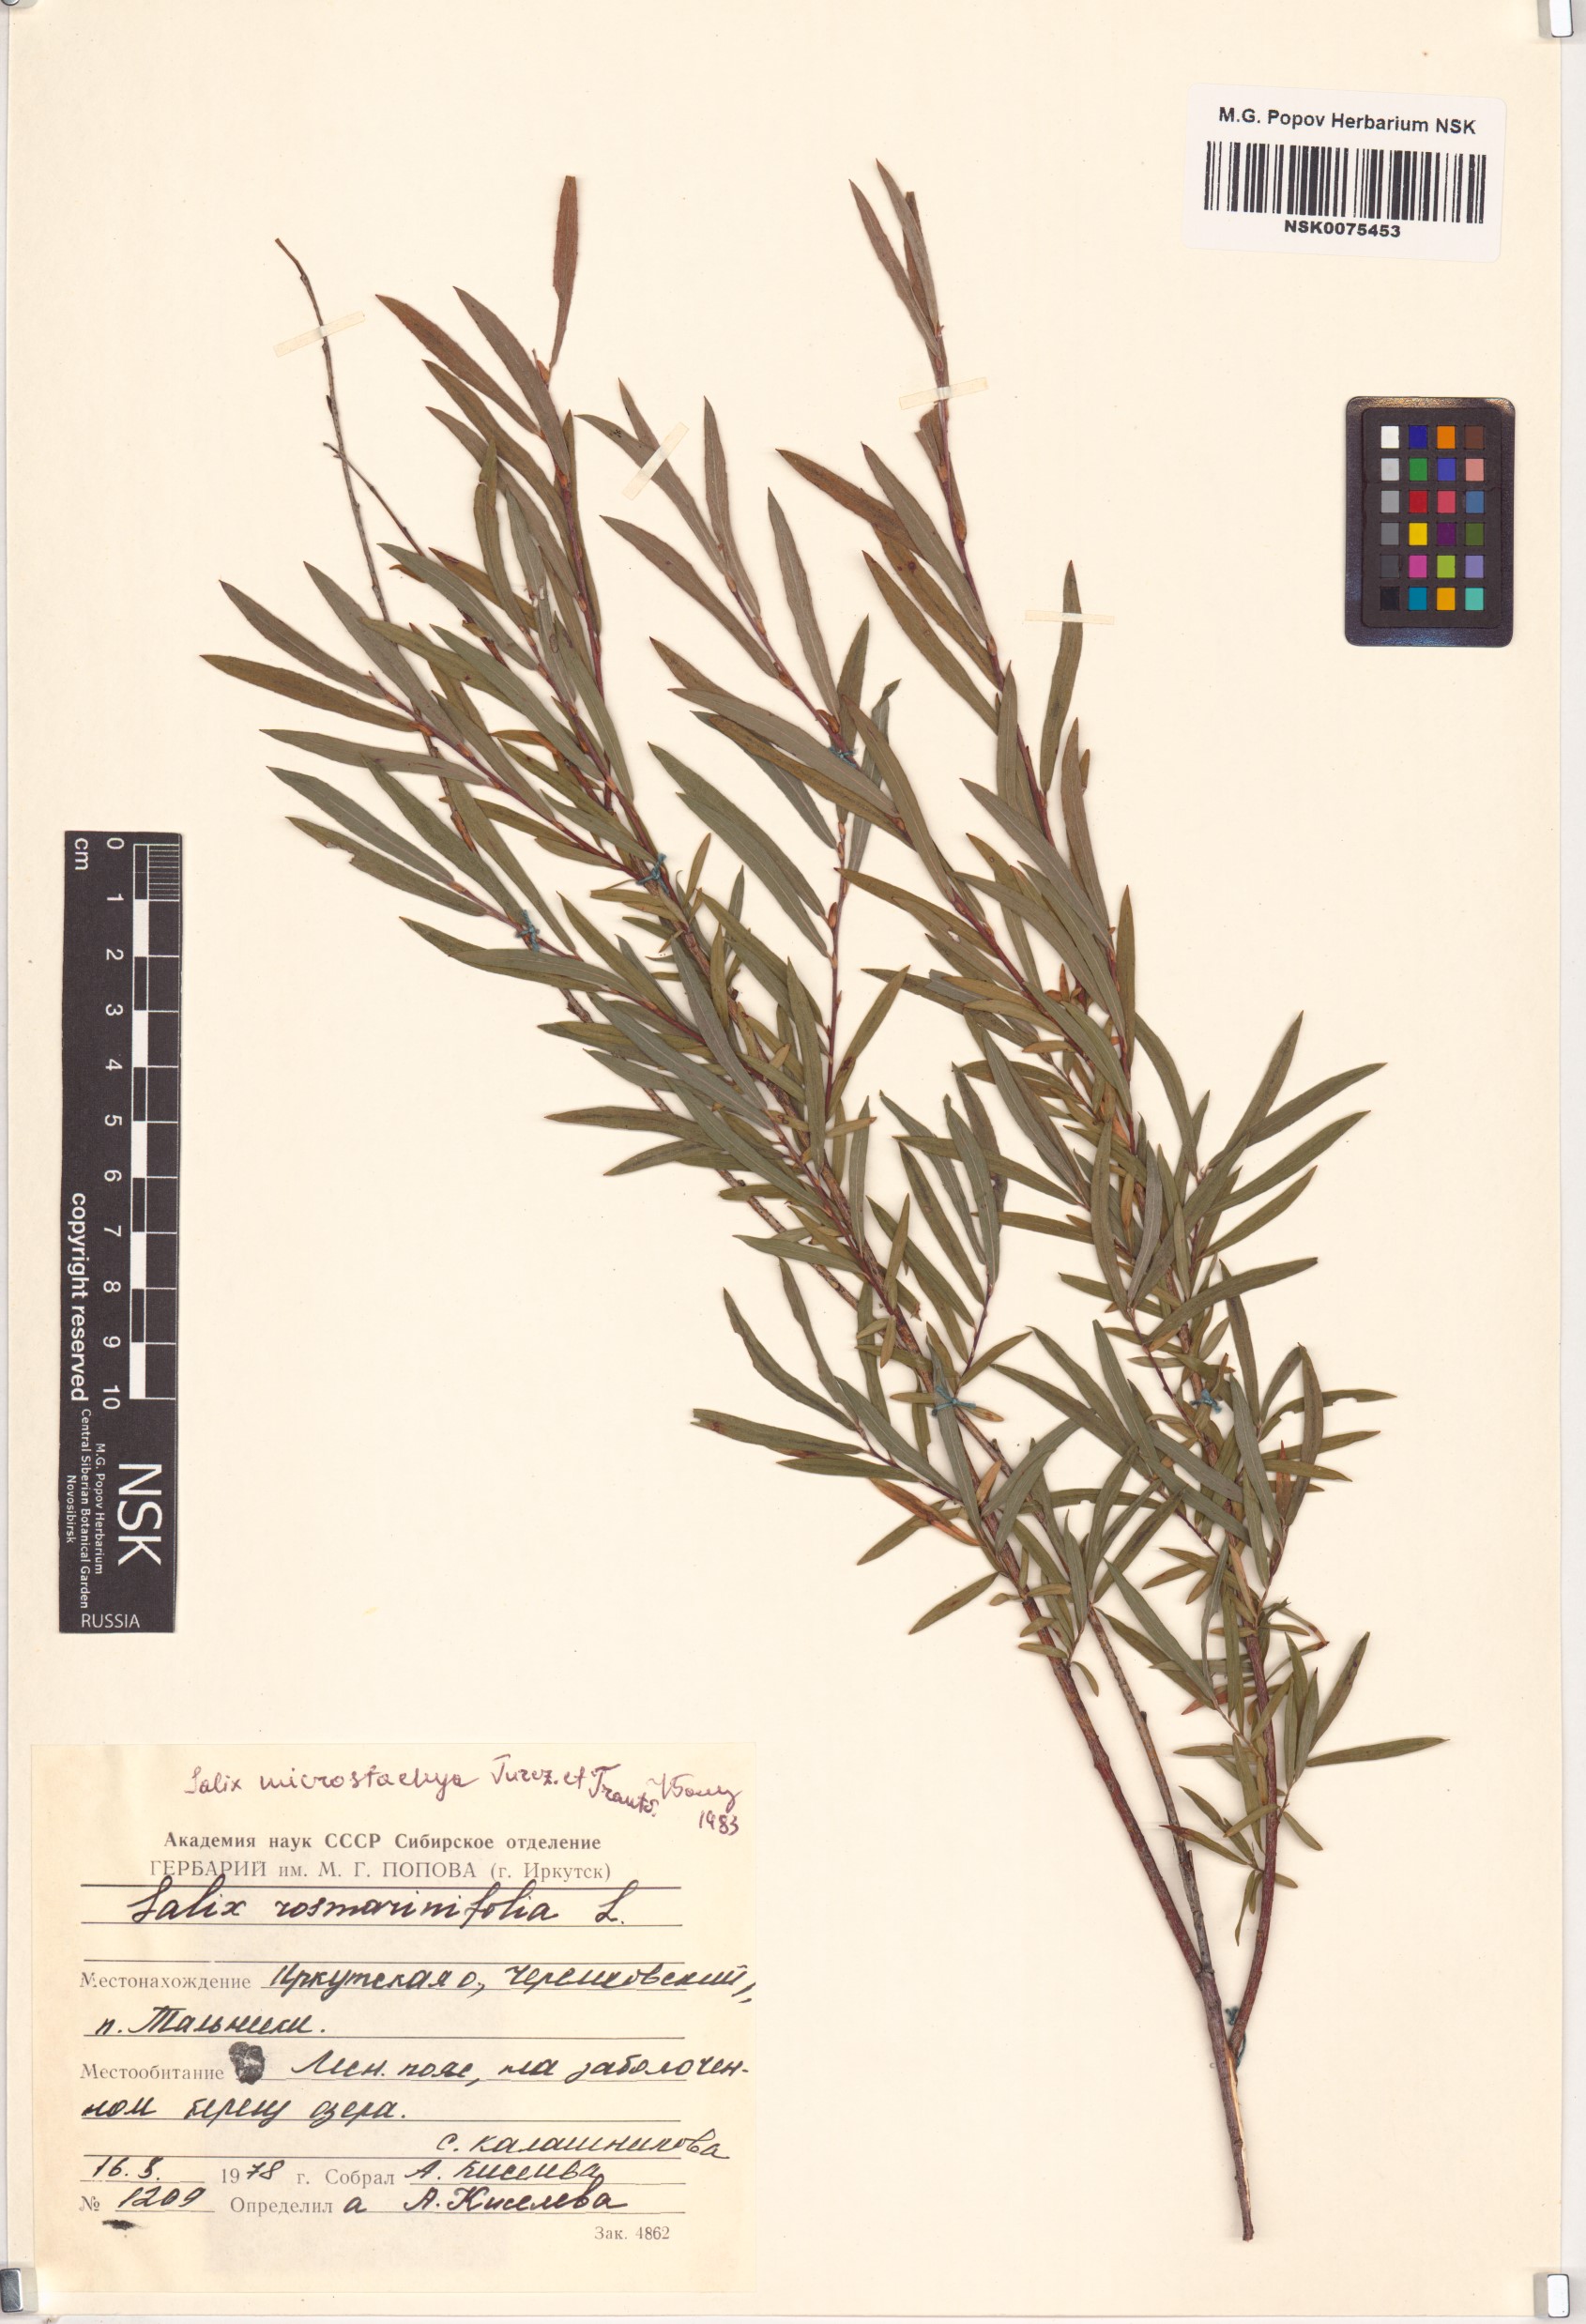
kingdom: Plantae
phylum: Tracheophyta
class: Magnoliopsida
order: Malpighiales
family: Salicaceae
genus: Salix
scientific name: Salix microstachya
